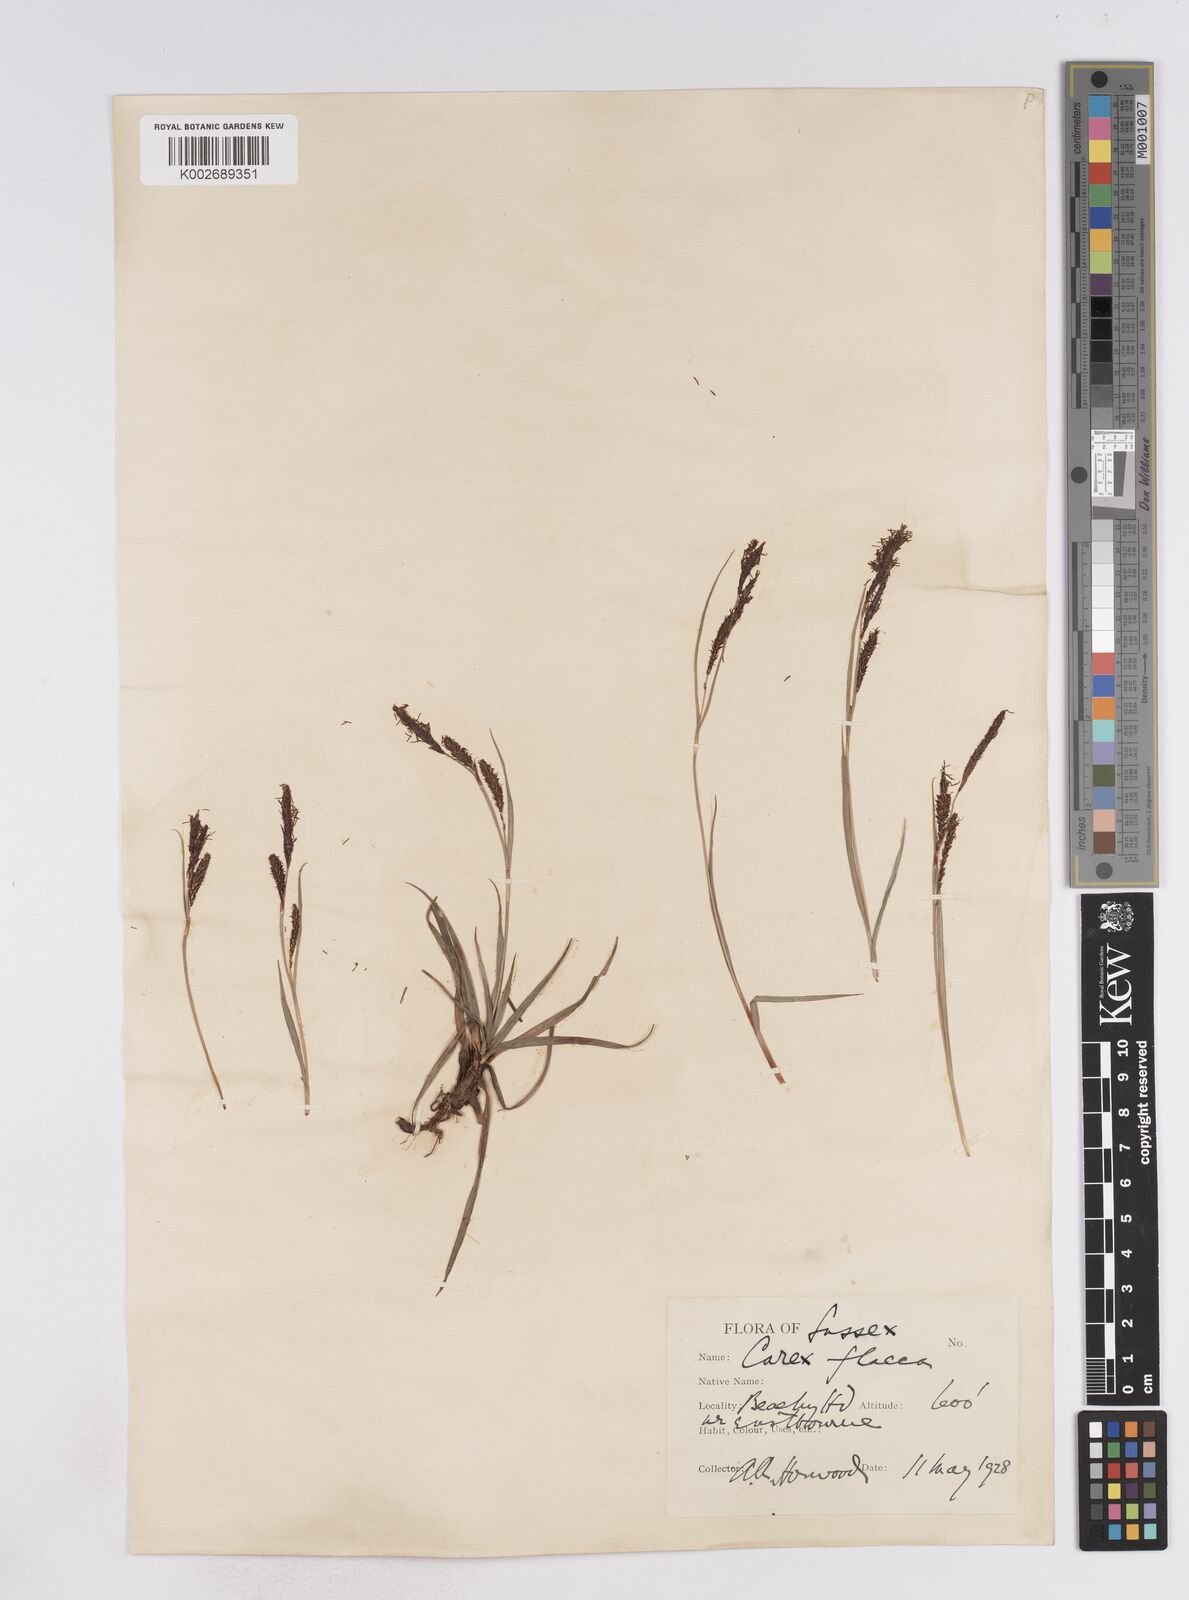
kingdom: Plantae
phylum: Tracheophyta
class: Liliopsida
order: Poales
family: Cyperaceae
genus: Carex
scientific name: Carex flacca
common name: Glaucous sedge
